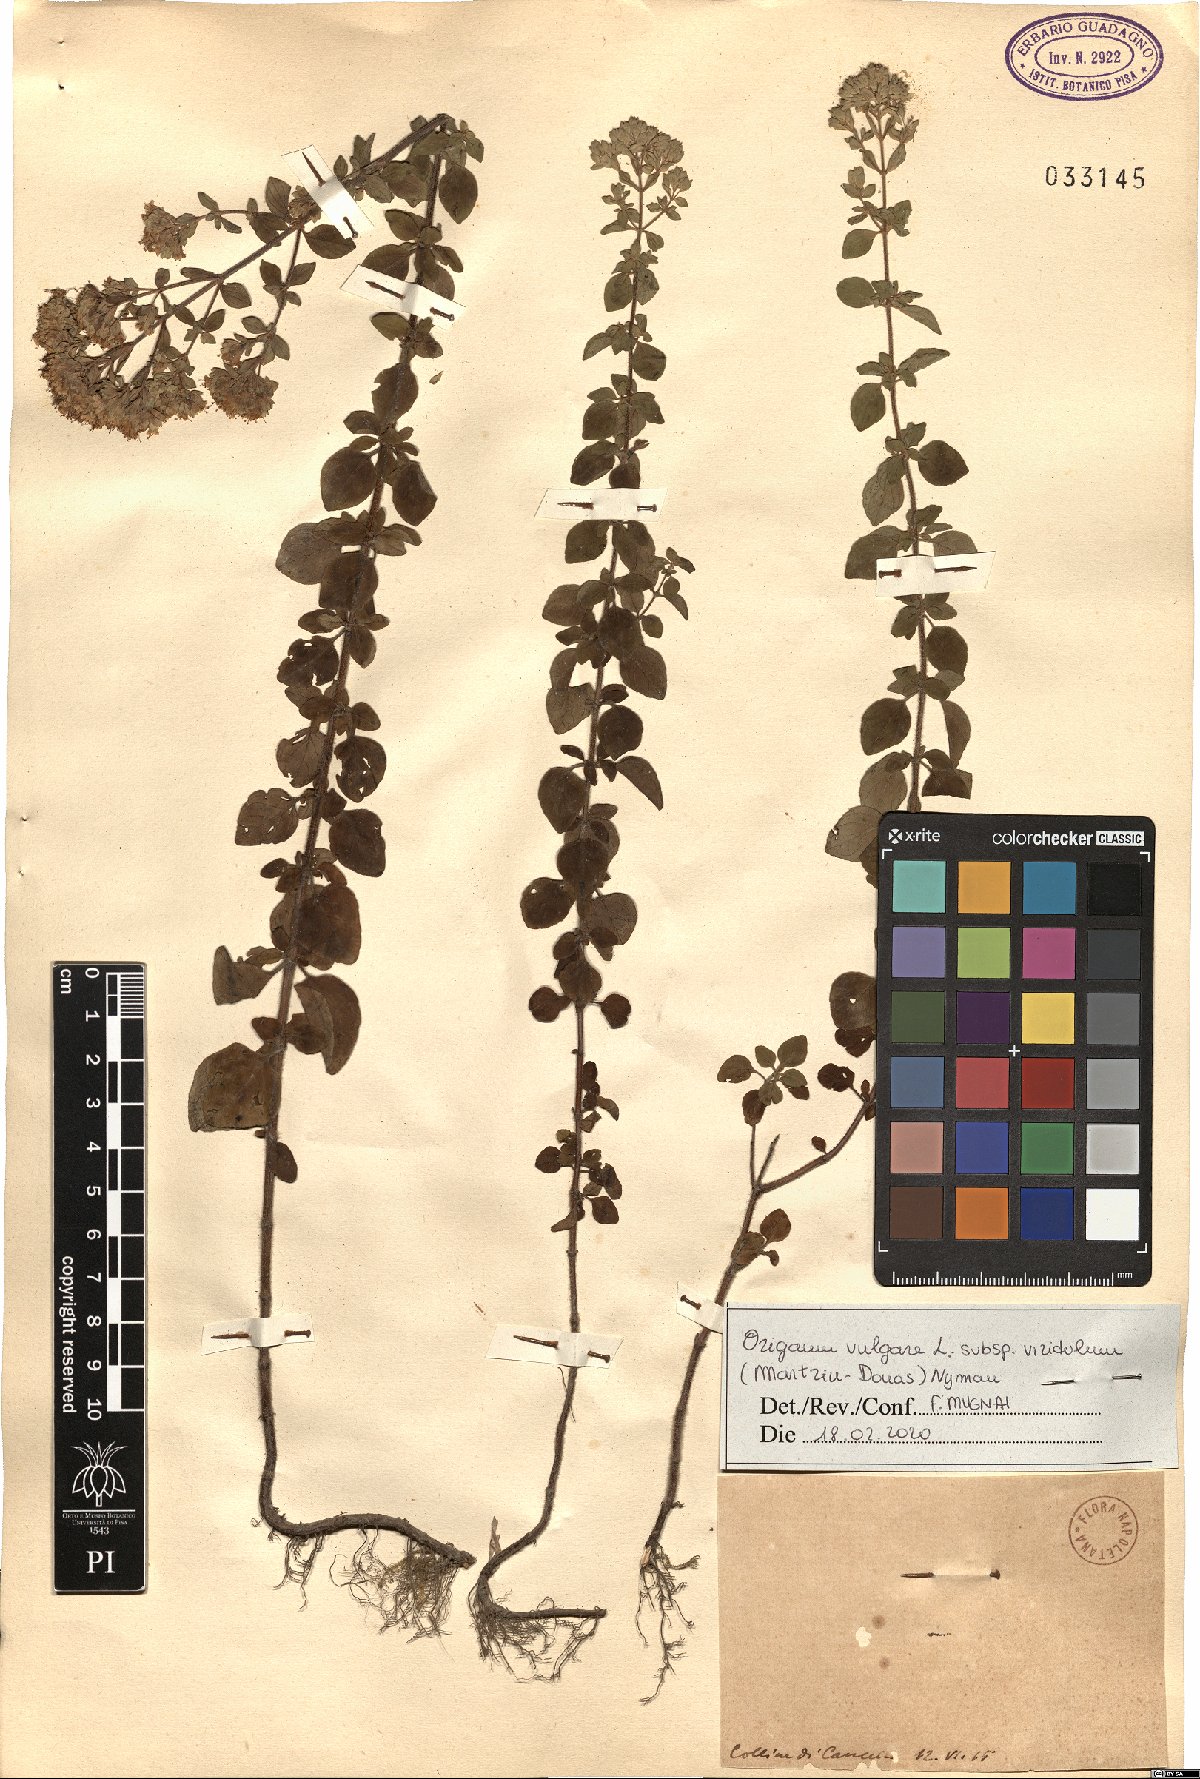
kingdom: Plantae
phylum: Tracheophyta
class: Magnoliopsida
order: Lamiales
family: Lamiaceae
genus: Origanum
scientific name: Origanum vulgare
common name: Wild marjoram
